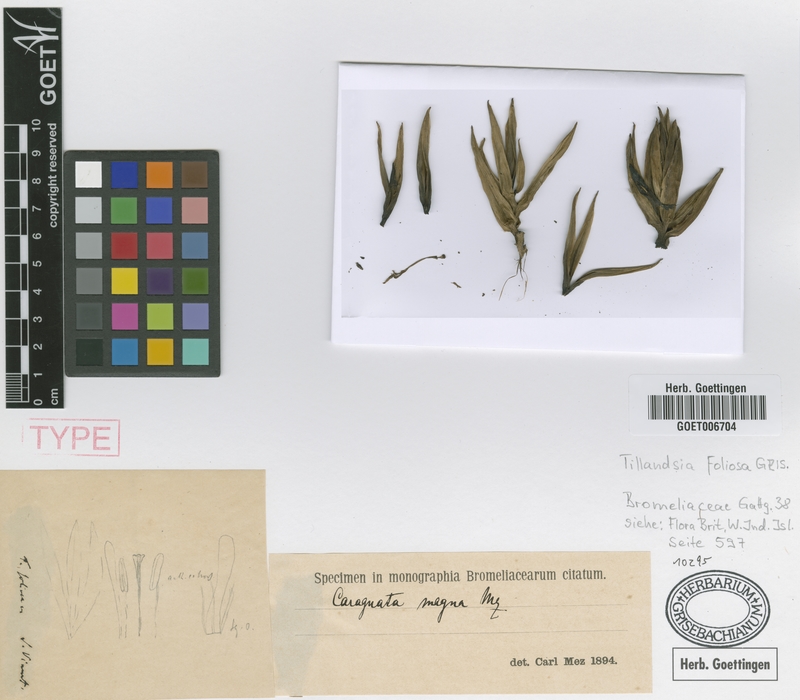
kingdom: Plantae
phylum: Tracheophyta
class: Liliopsida
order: Poales
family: Bromeliaceae
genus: Guzmania
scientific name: Guzmania megastachya
